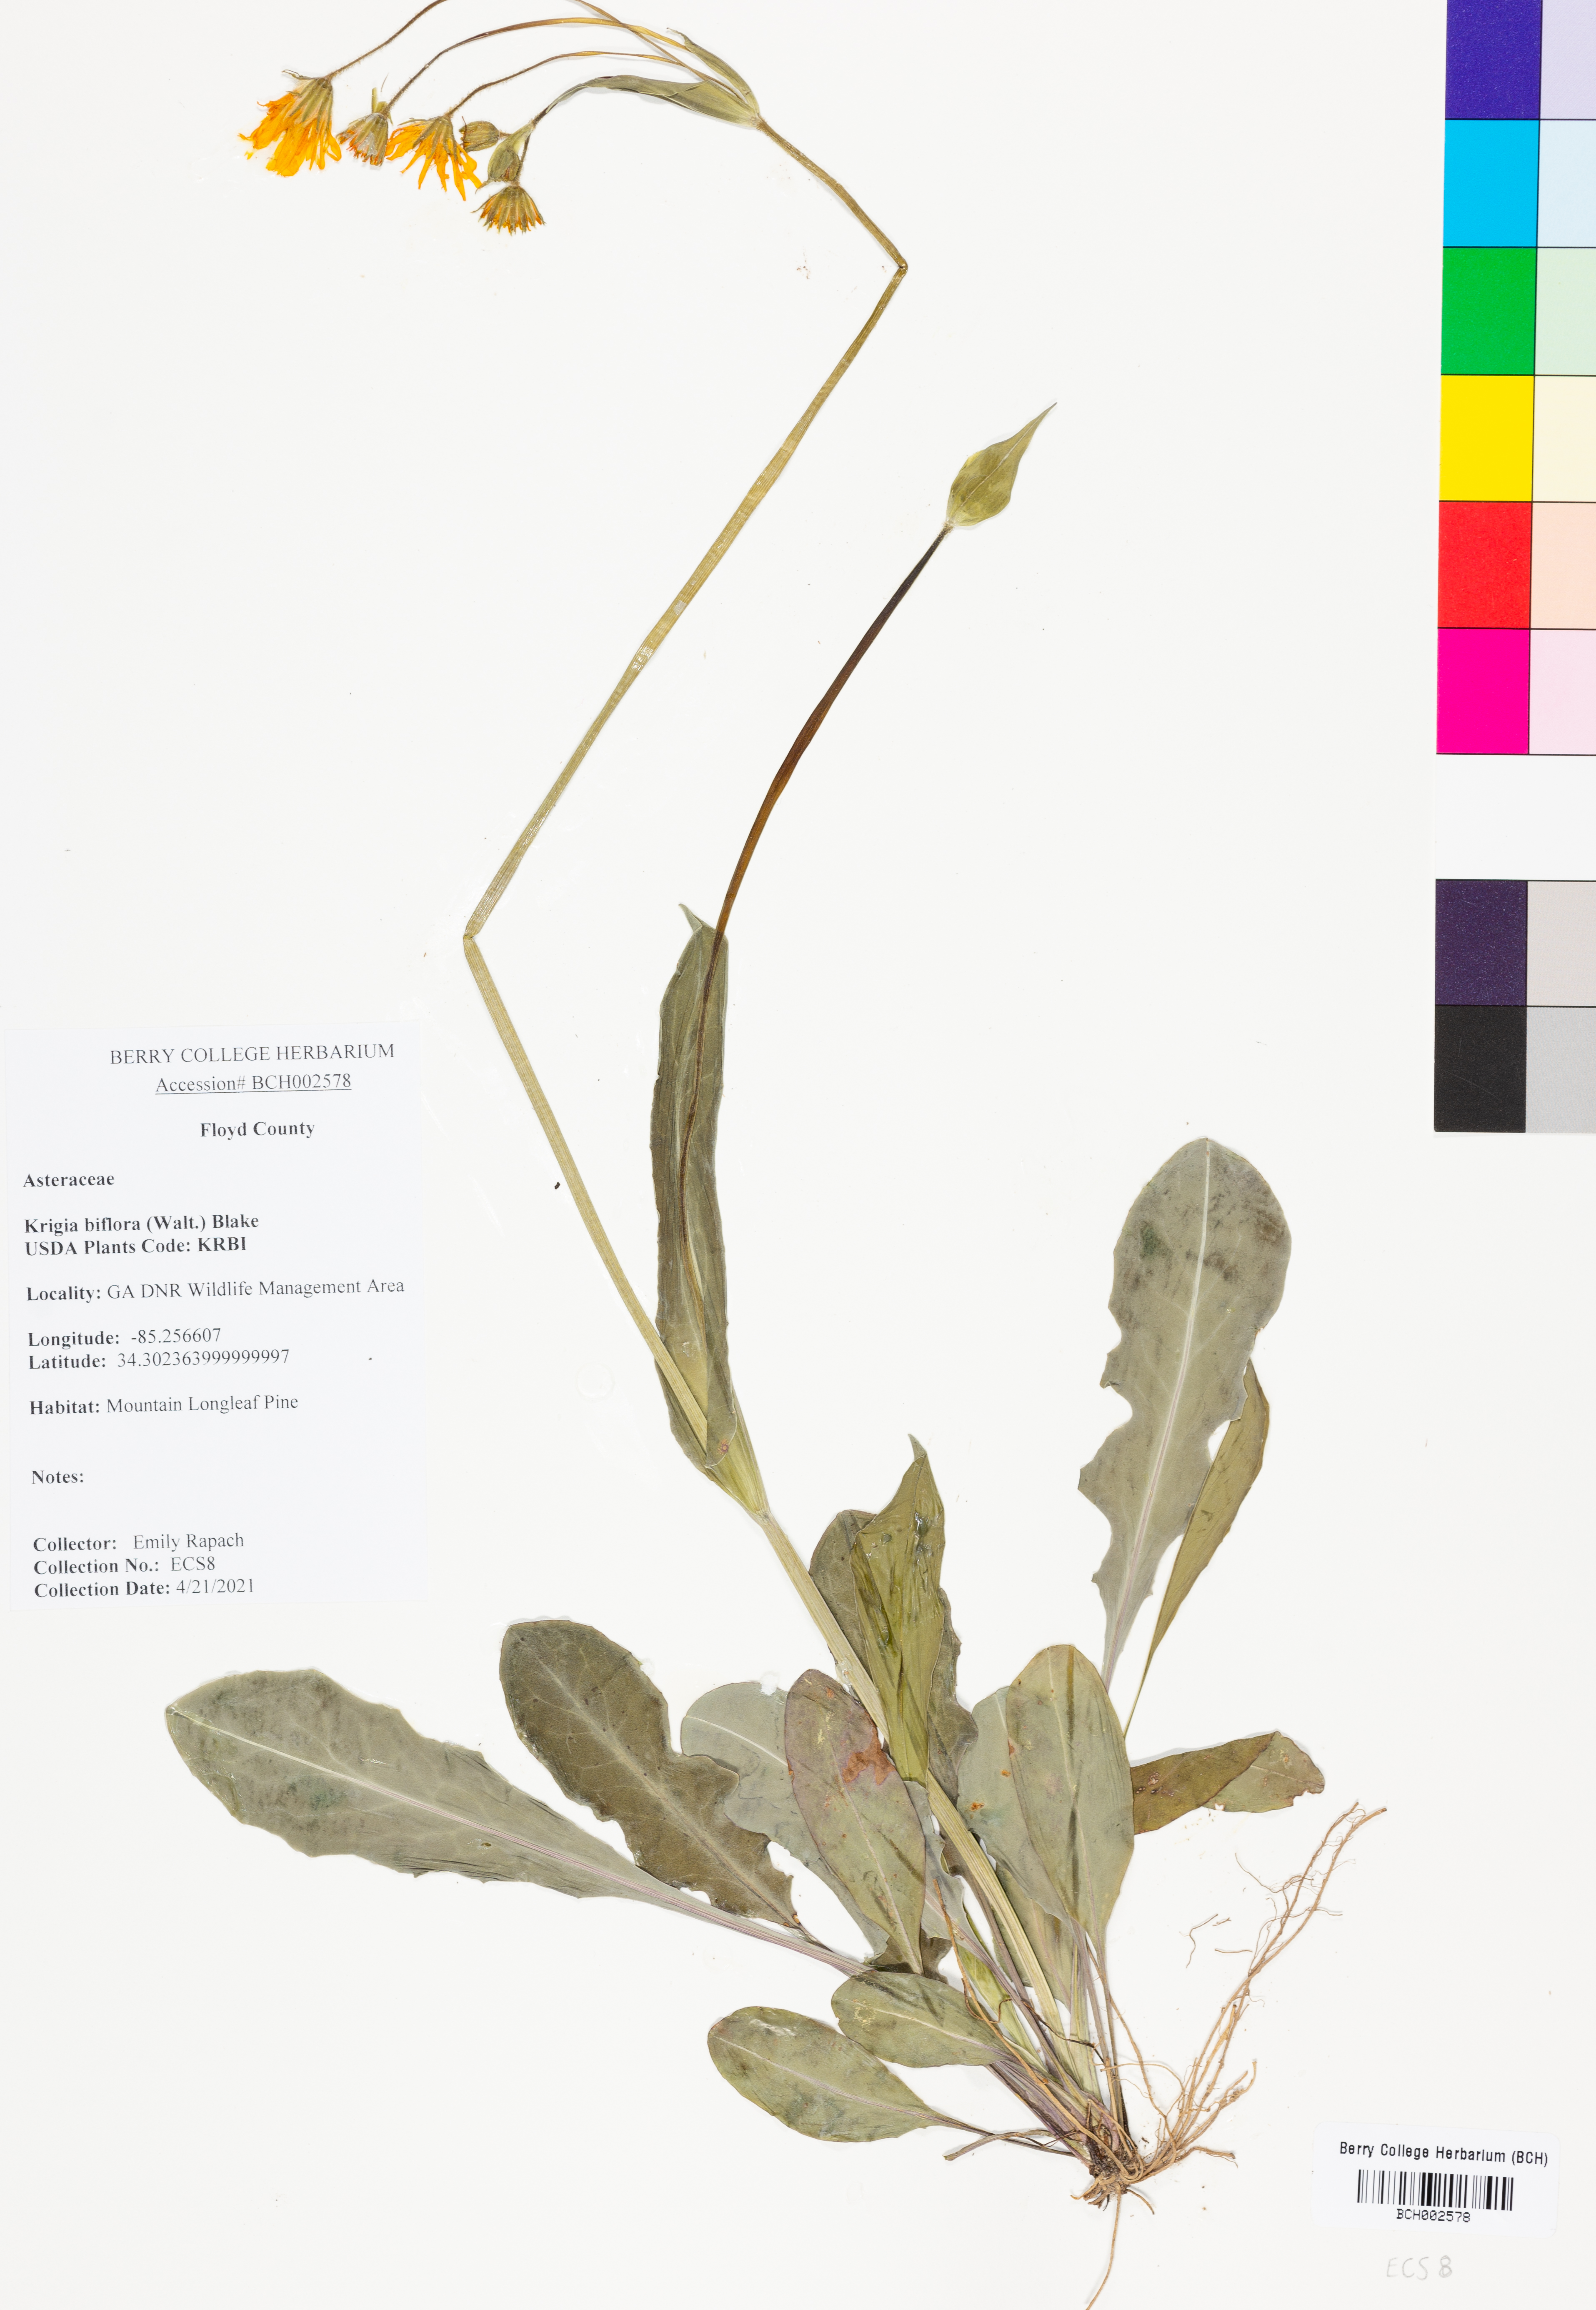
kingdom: Plantae
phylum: Tracheophyta
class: Magnoliopsida
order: Asterales
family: Asteraceae
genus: Krigia
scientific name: Krigia biflora
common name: Orange dwarf-dandelion
